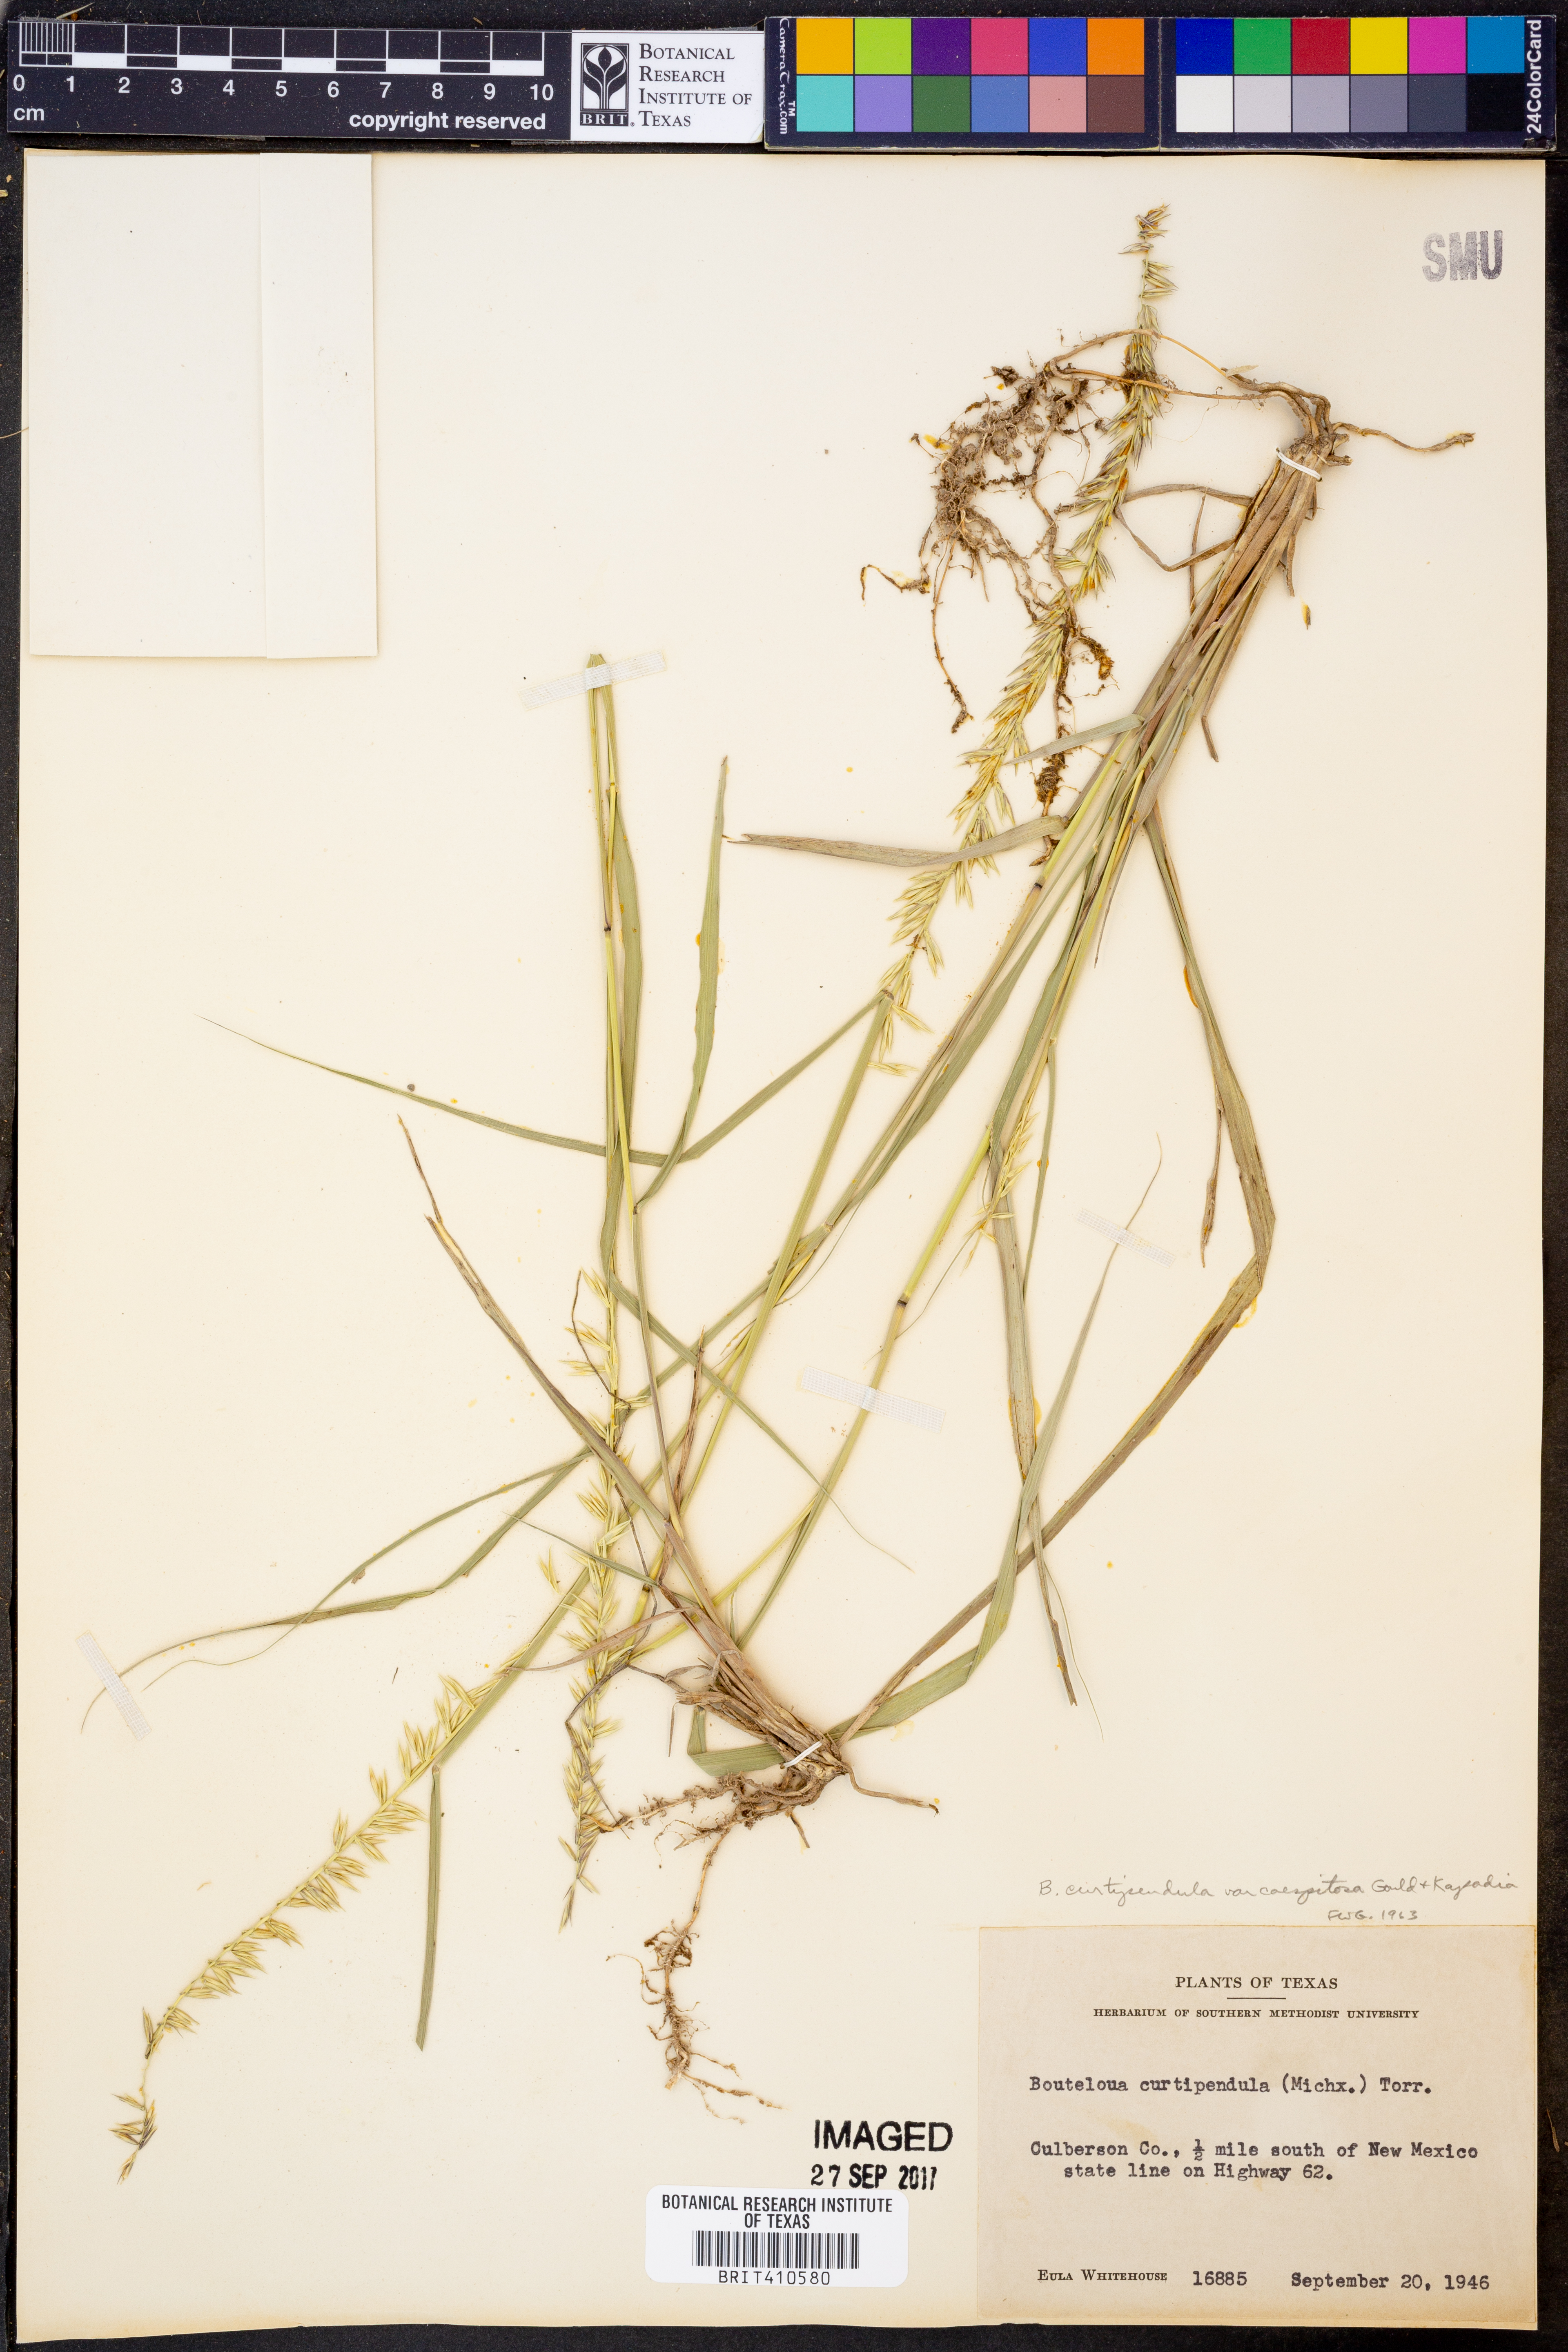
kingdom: Plantae
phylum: Tracheophyta
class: Liliopsida
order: Poales
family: Poaceae
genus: Bouteloua
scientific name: Bouteloua curtipendula
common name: Side-oats grama
